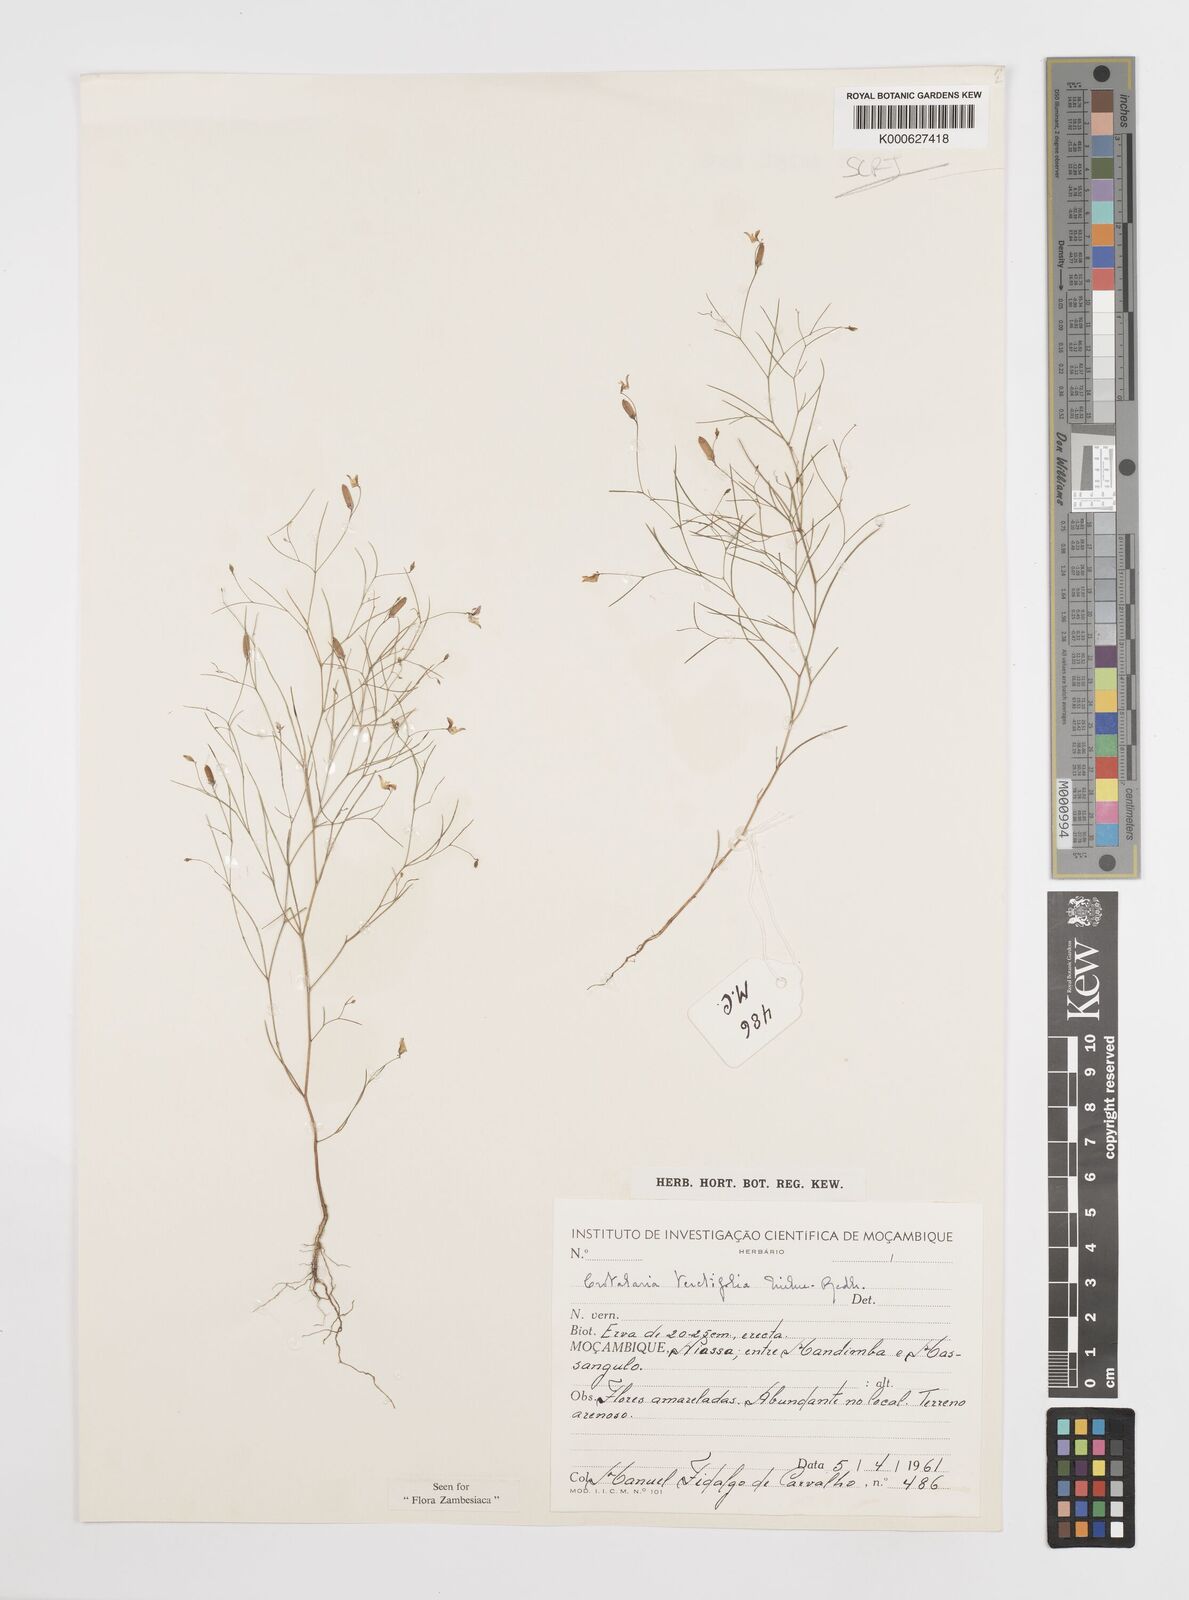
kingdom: Plantae
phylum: Tracheophyta
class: Magnoliopsida
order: Fabales
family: Fabaceae
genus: Crotalaria
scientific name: Crotalaria teretifolia
